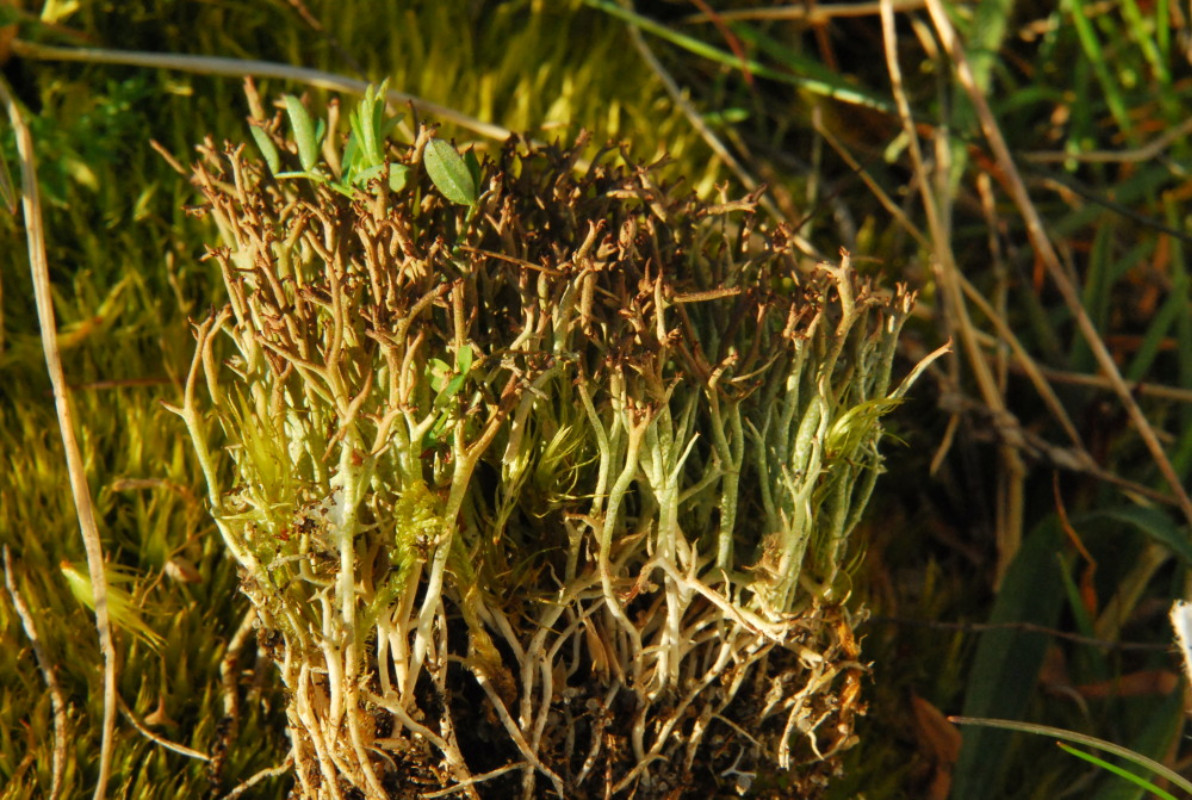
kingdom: Fungi
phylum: Ascomycota
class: Lecanoromycetes
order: Lecanorales
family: Cladoniaceae
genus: Cladonia
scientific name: Cladonia furcata
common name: kløftet bægerlav
